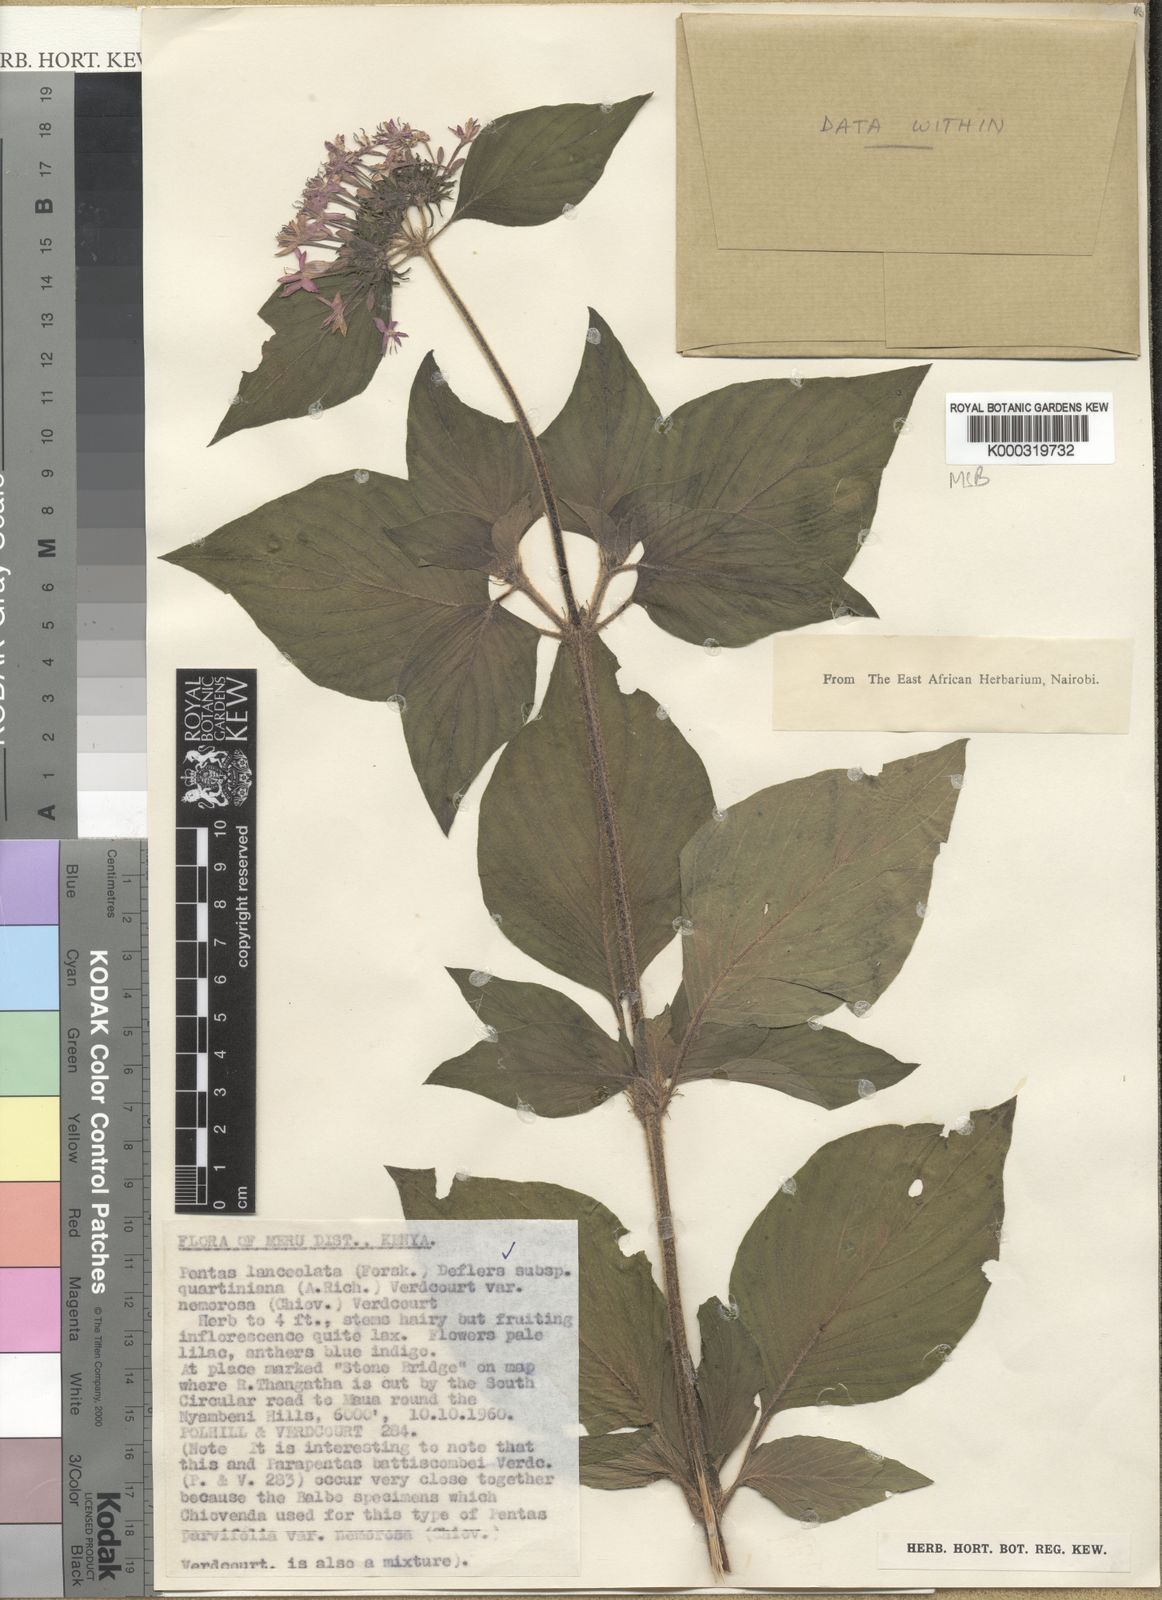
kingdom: Plantae
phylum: Tracheophyta
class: Magnoliopsida
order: Gentianales
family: Rubiaceae
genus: Pentas
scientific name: Pentas lanceolata
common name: Egyptian starcluster
